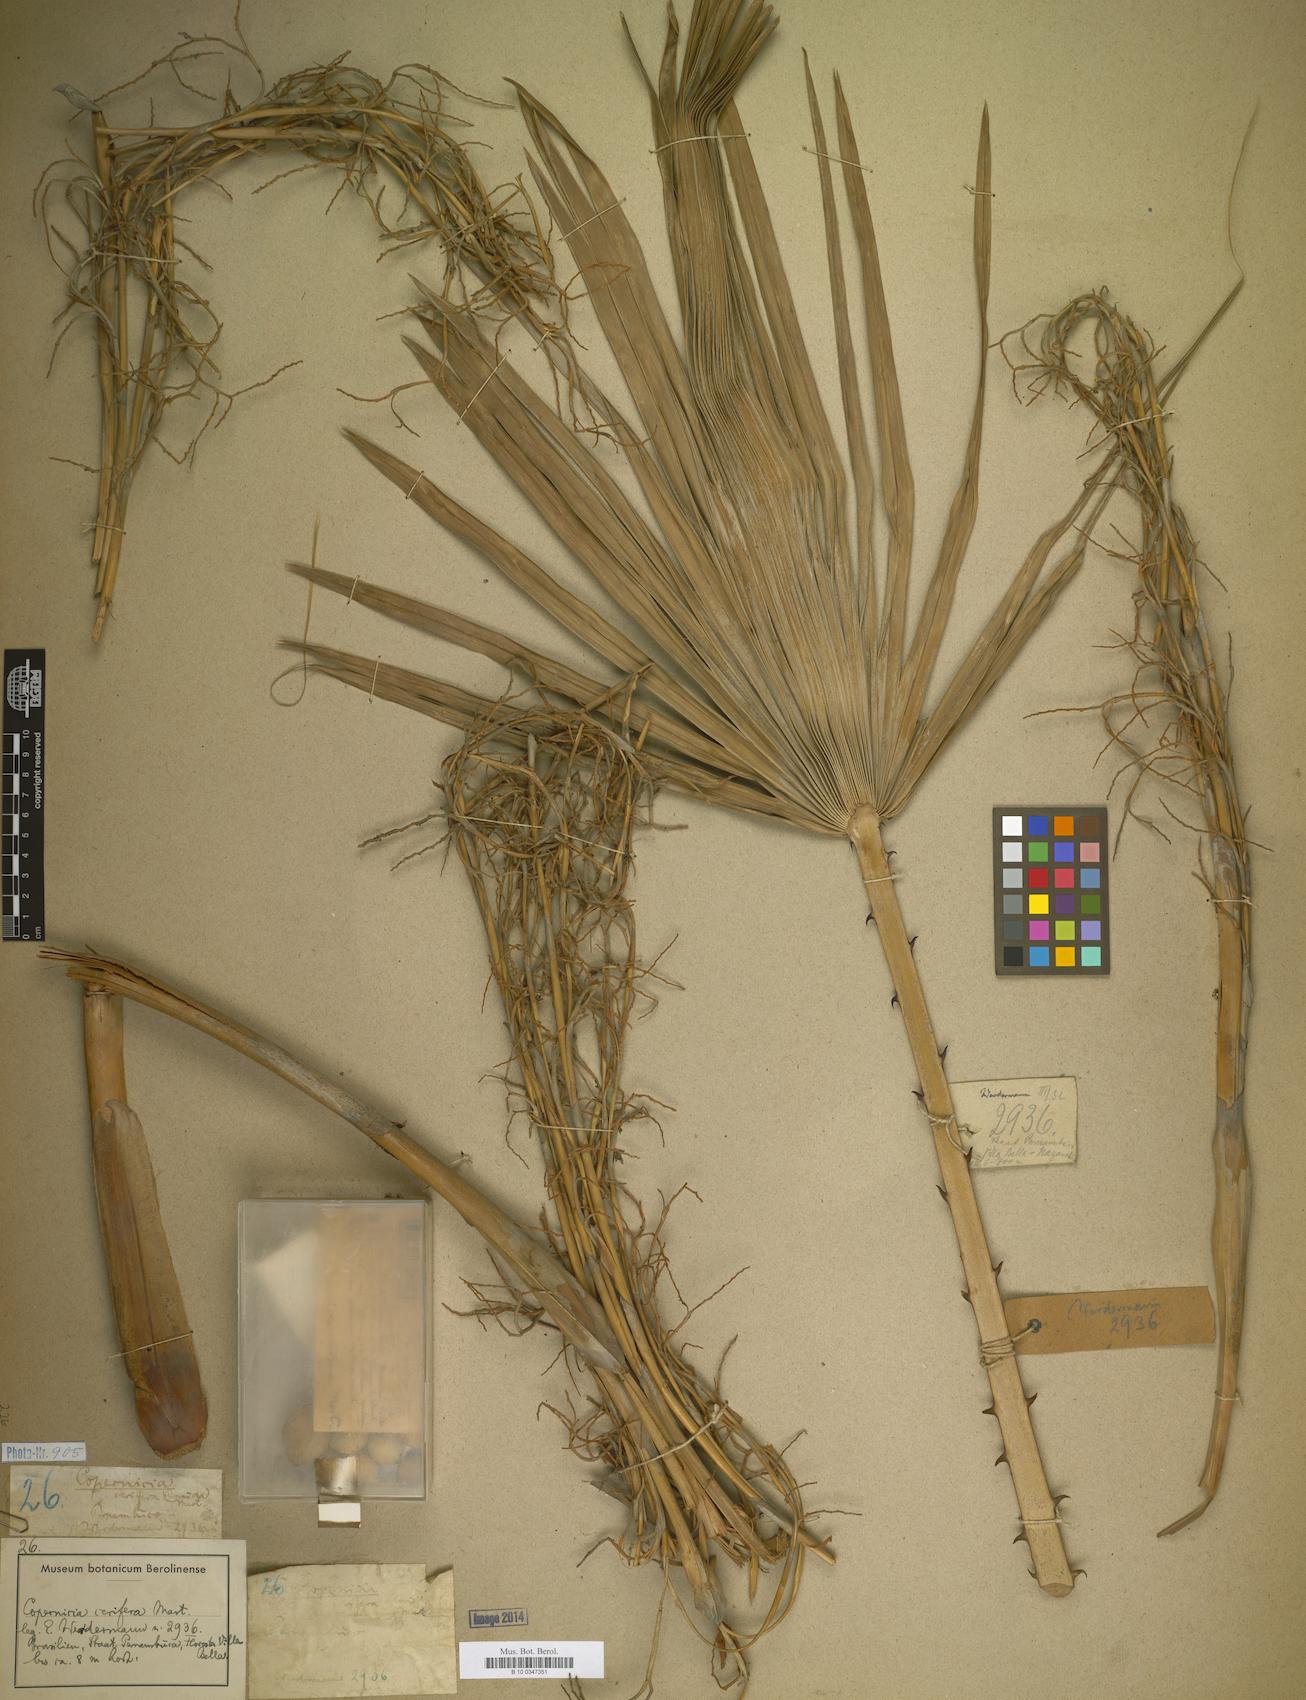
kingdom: Plantae
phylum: Tracheophyta
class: Liliopsida
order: Arecales
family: Arecaceae
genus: Copernicia
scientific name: Copernicia prunifera
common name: Carnauba palm
